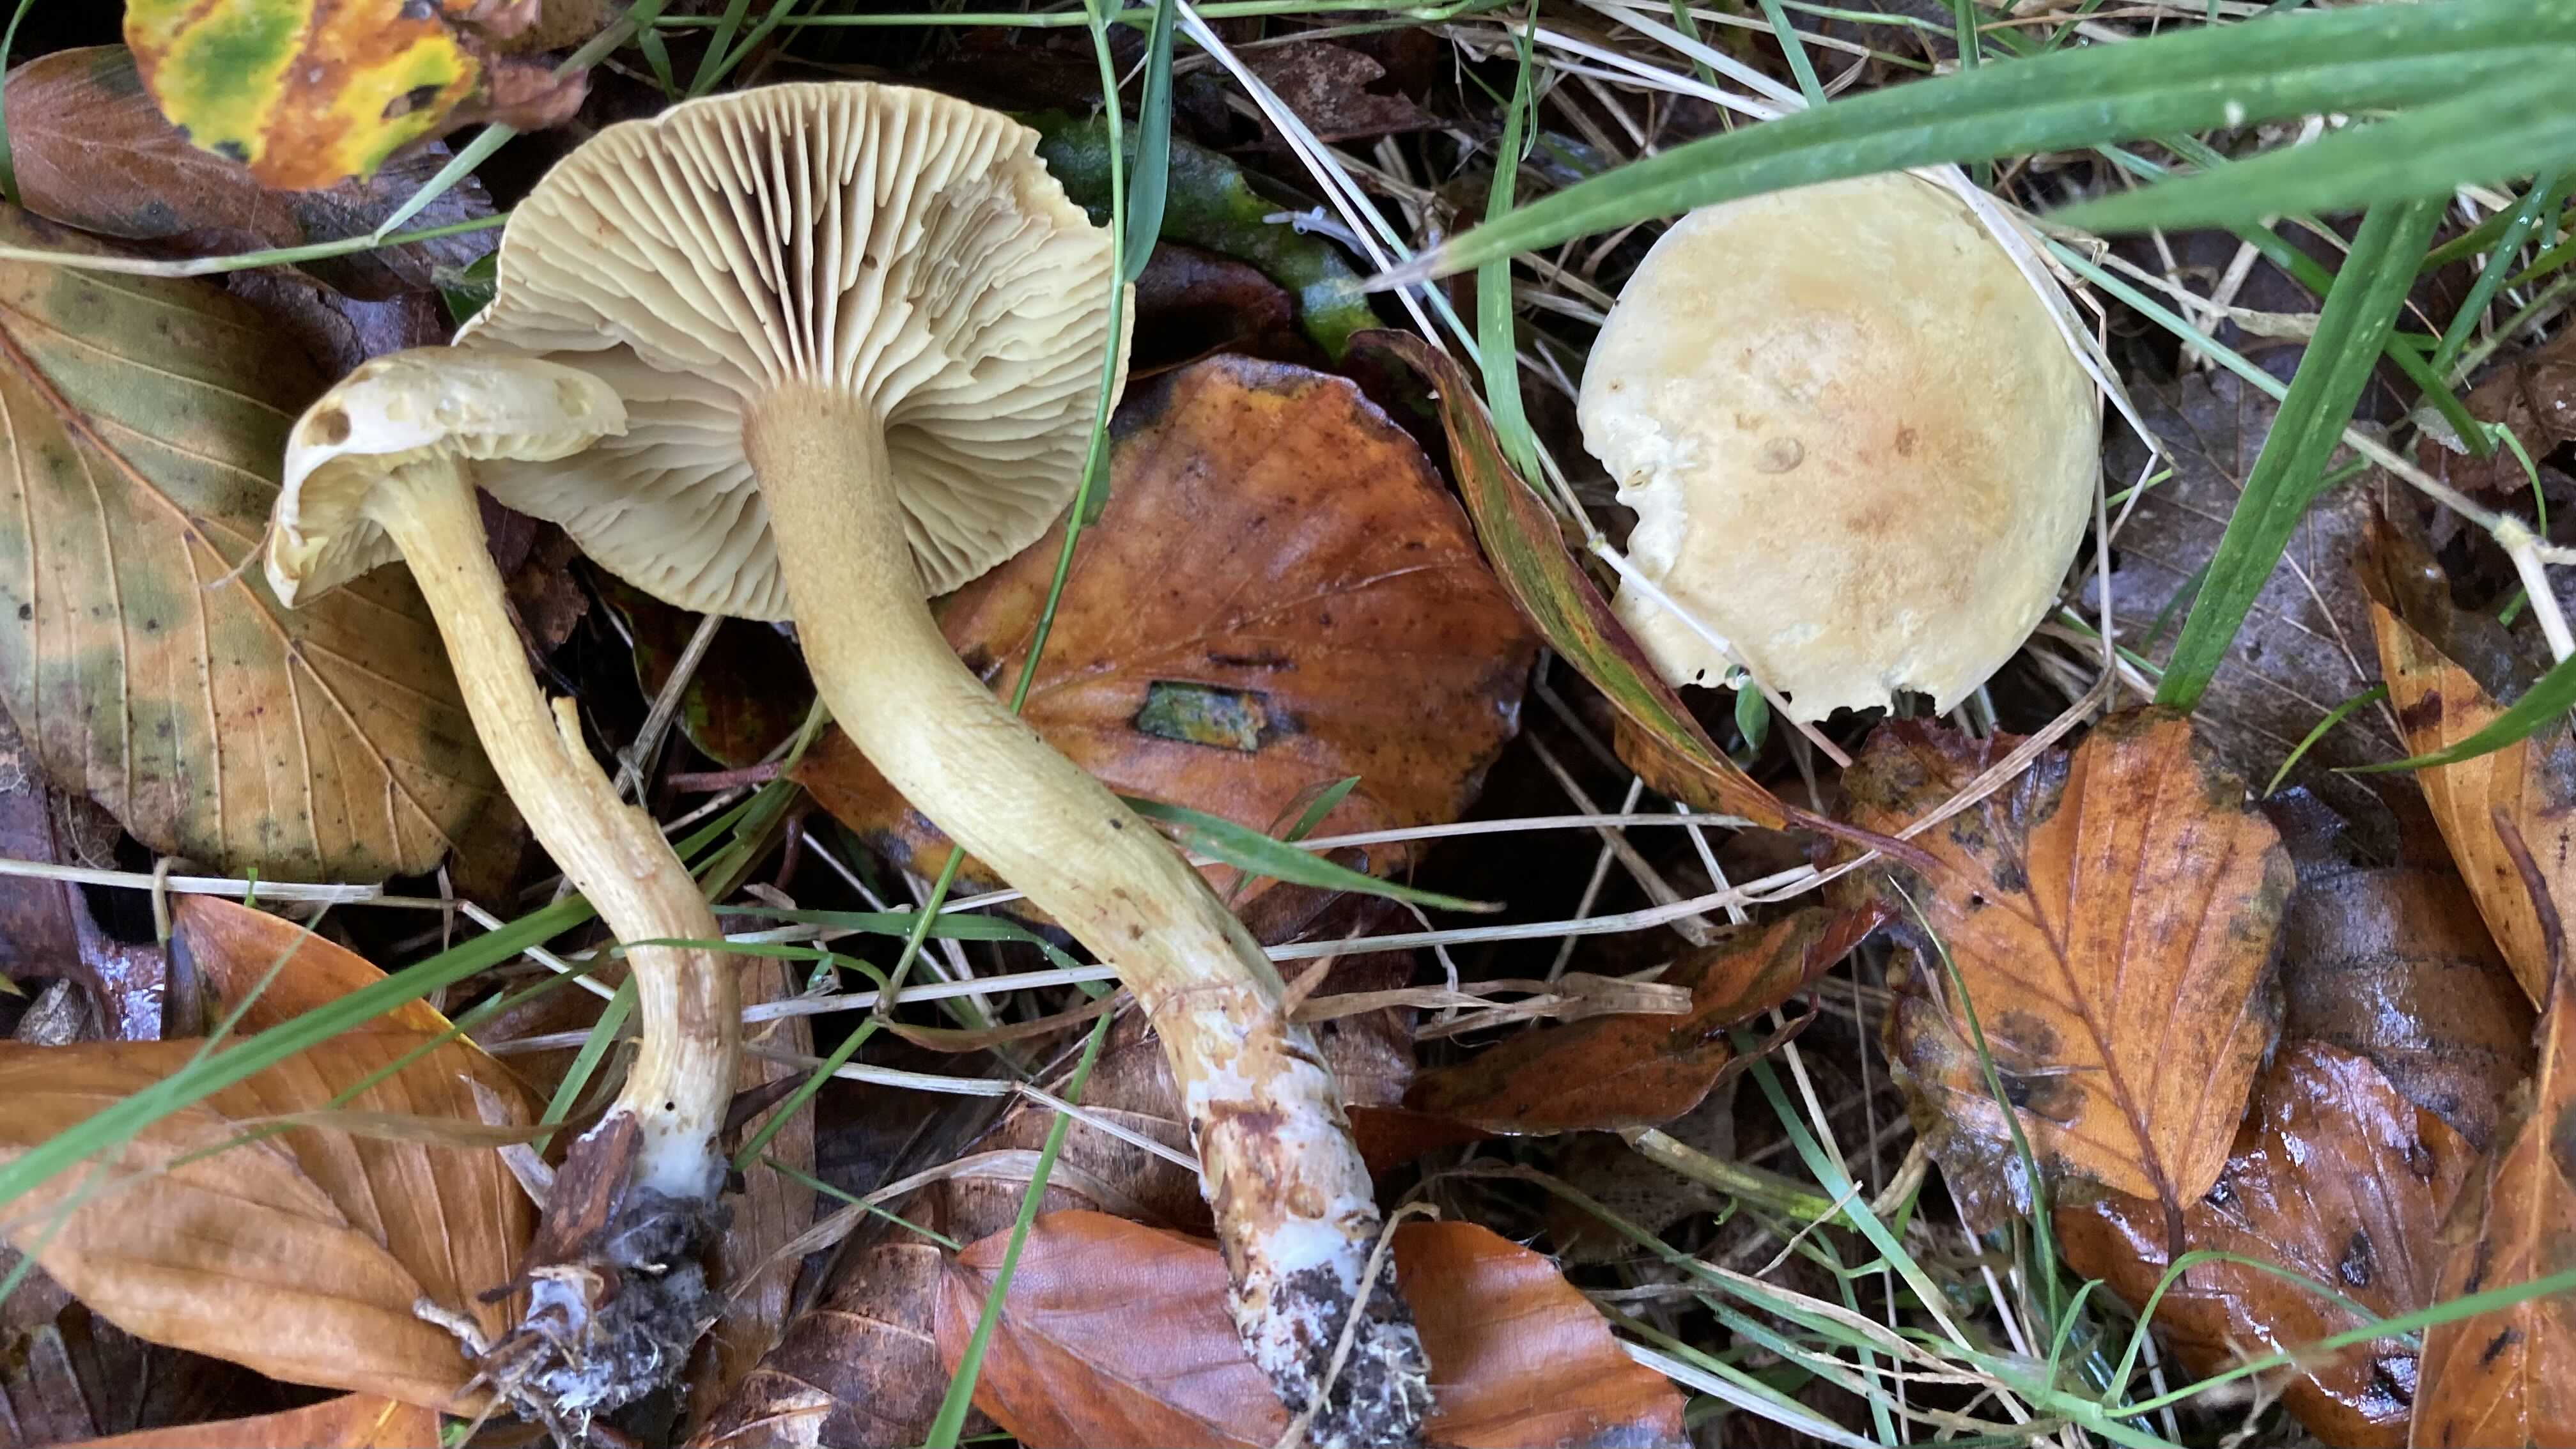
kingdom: Fungi
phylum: Basidiomycota
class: Agaricomycetes
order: Agaricales
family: Tricholomataceae
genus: Tricholoma
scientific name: Tricholoma sulphureum
